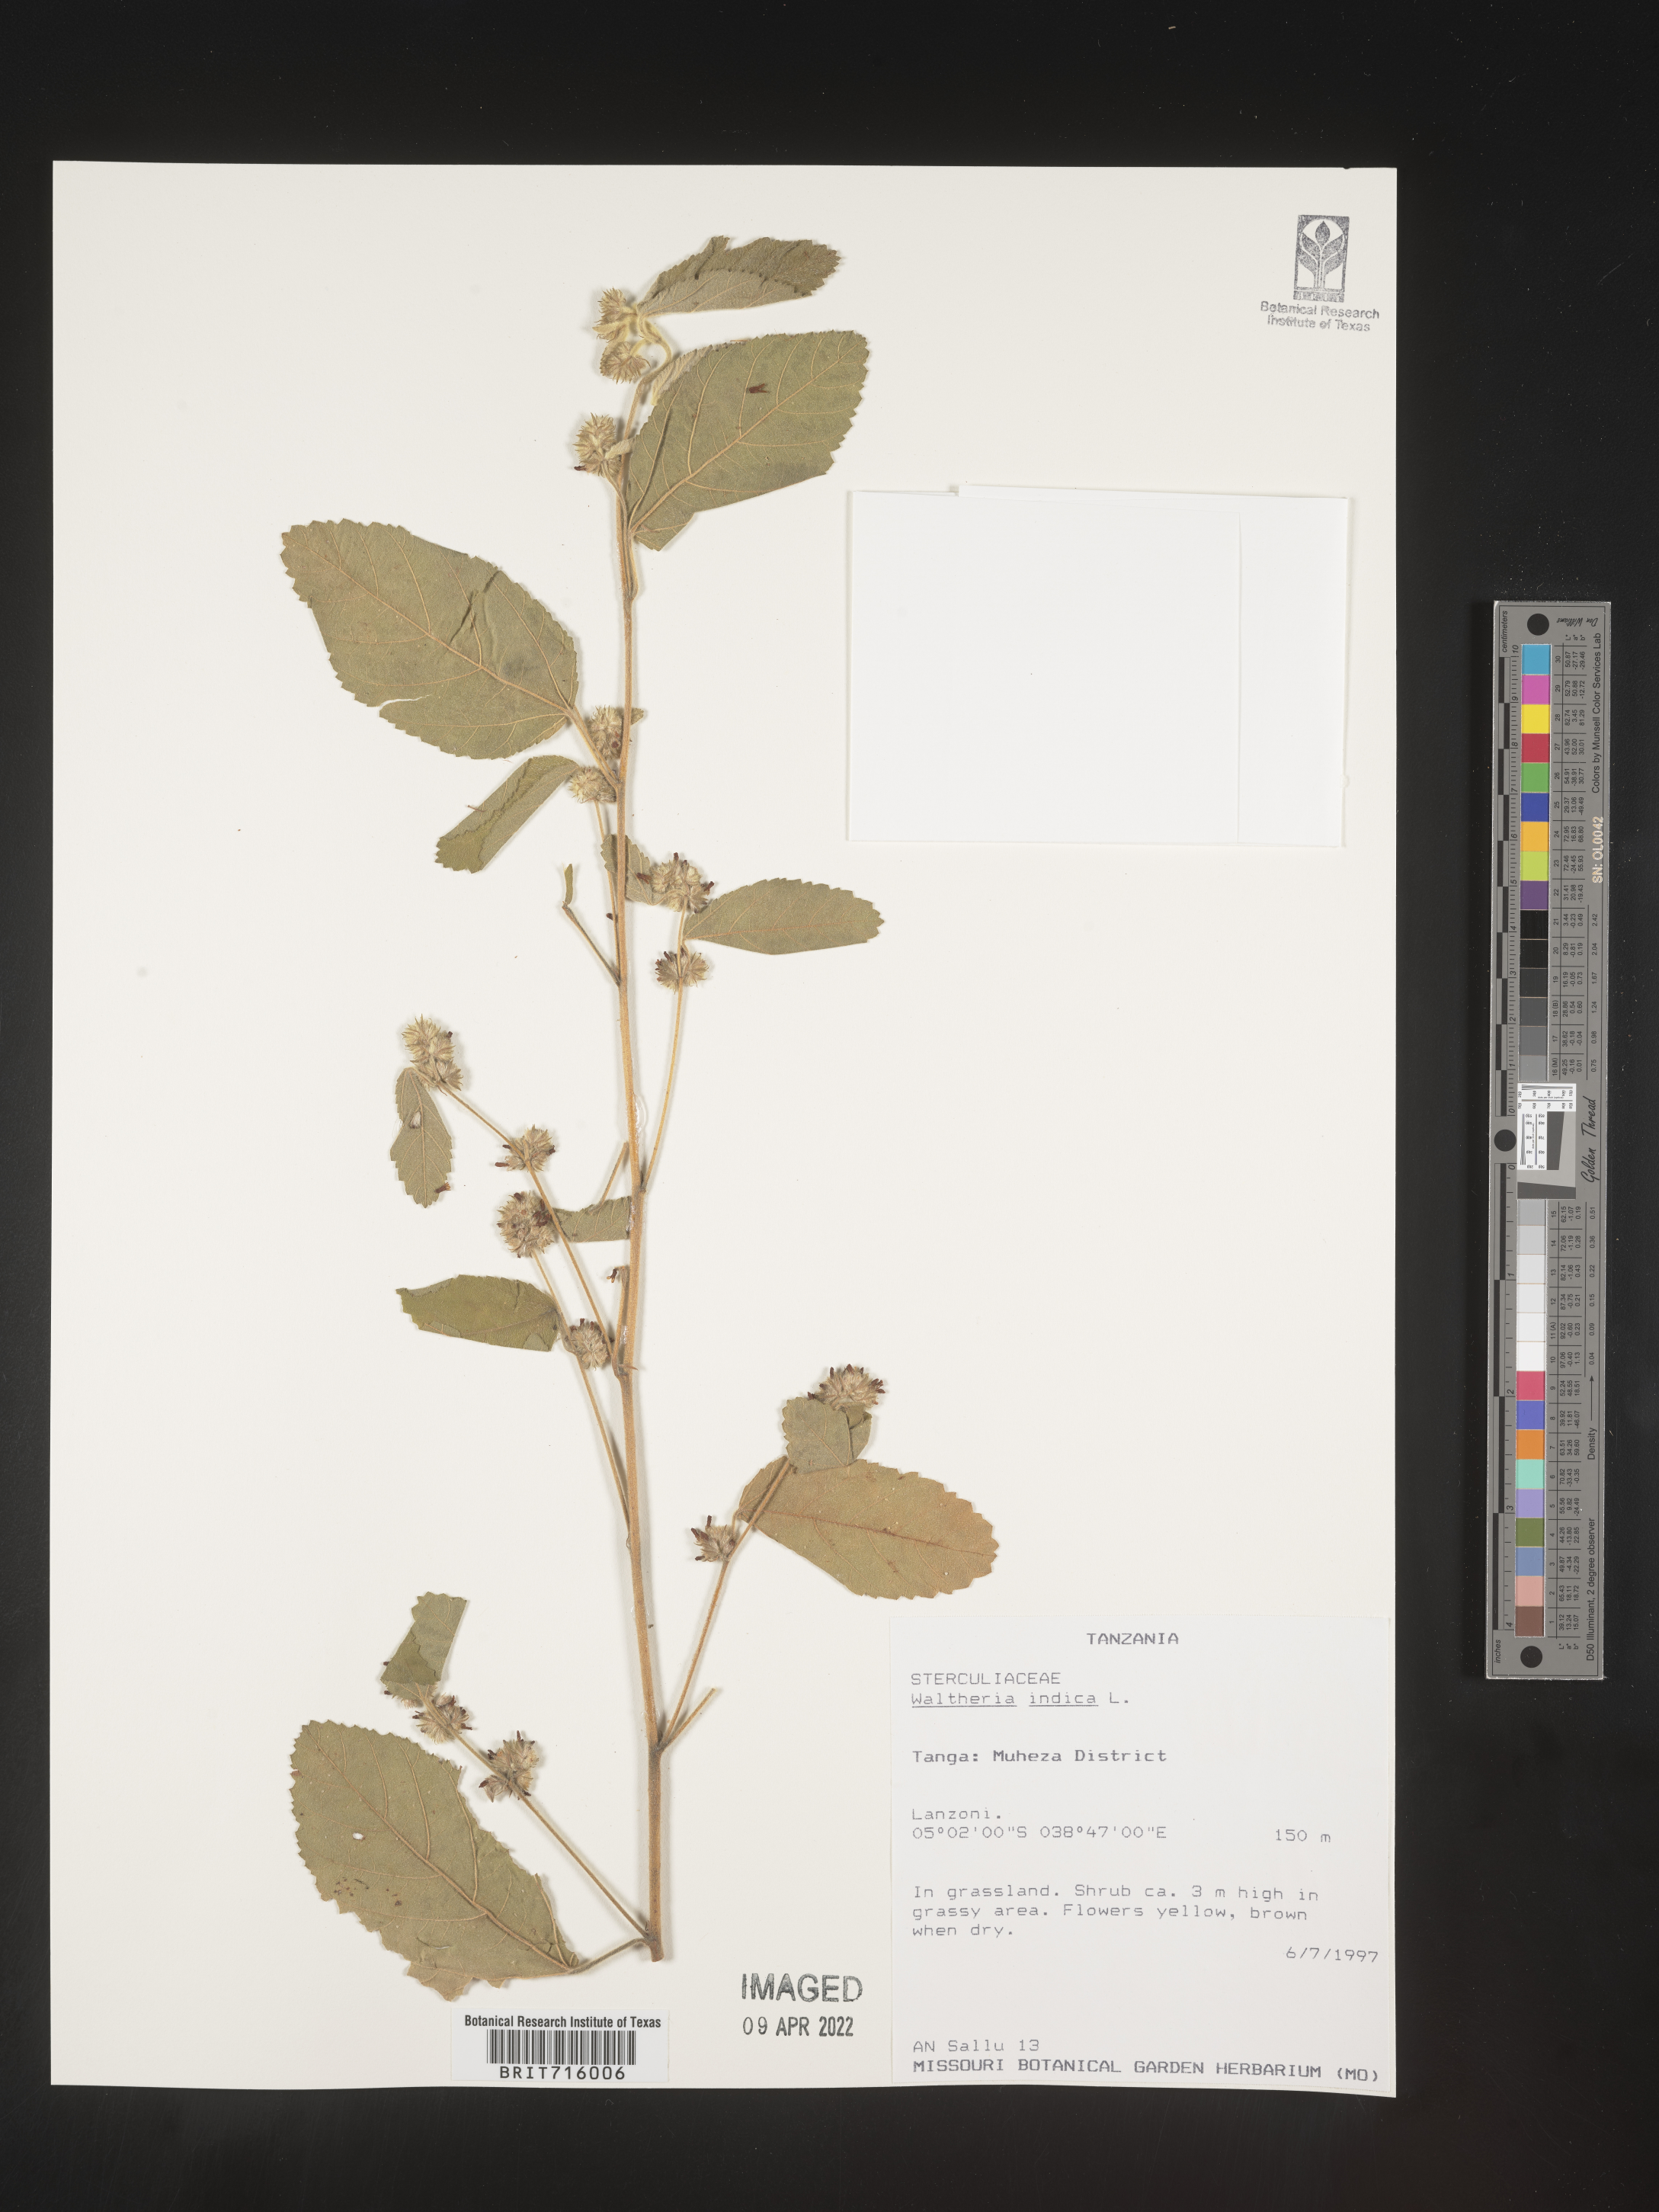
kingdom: Plantae
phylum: Tracheophyta
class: Magnoliopsida
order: Malvales
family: Malvaceae
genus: Waltheria
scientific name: Waltheria
